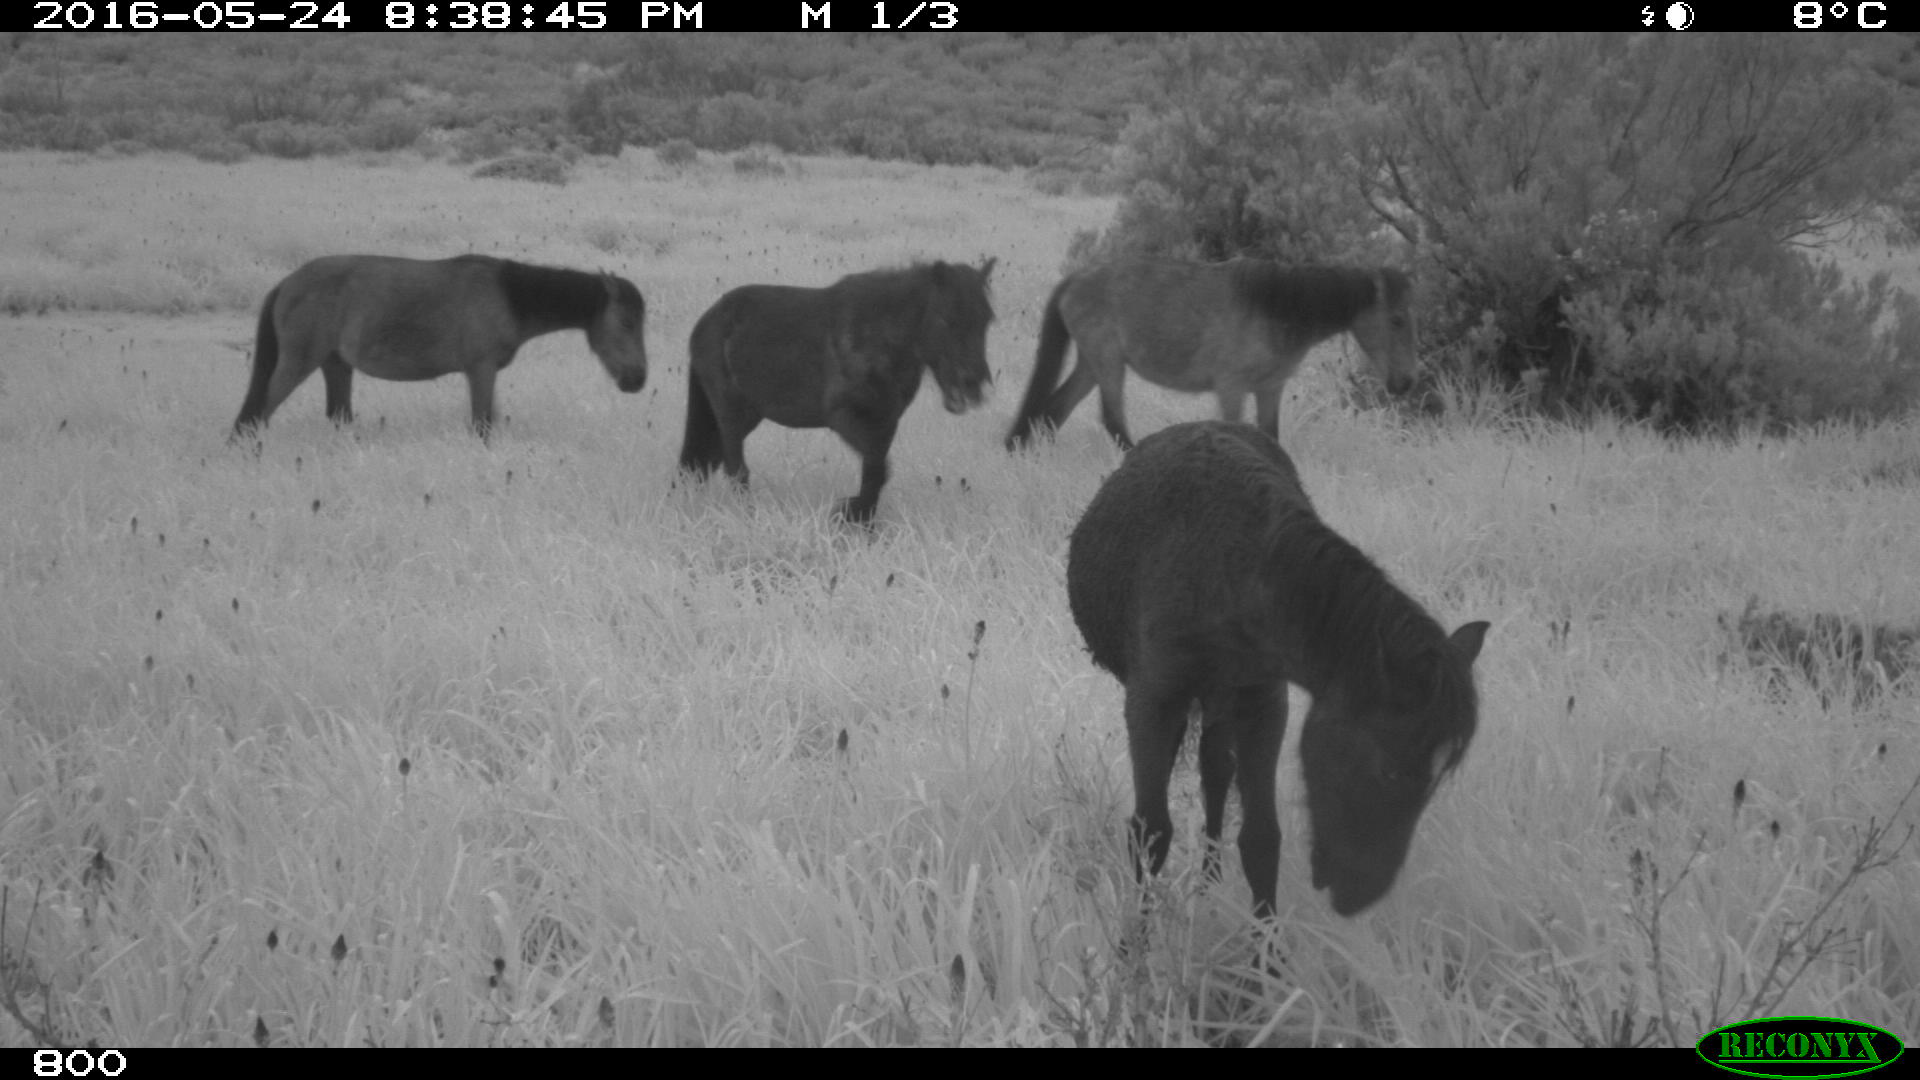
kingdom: Animalia
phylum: Chordata
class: Mammalia
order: Perissodactyla
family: Equidae
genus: Equus
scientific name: Equus caballus
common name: Horse
